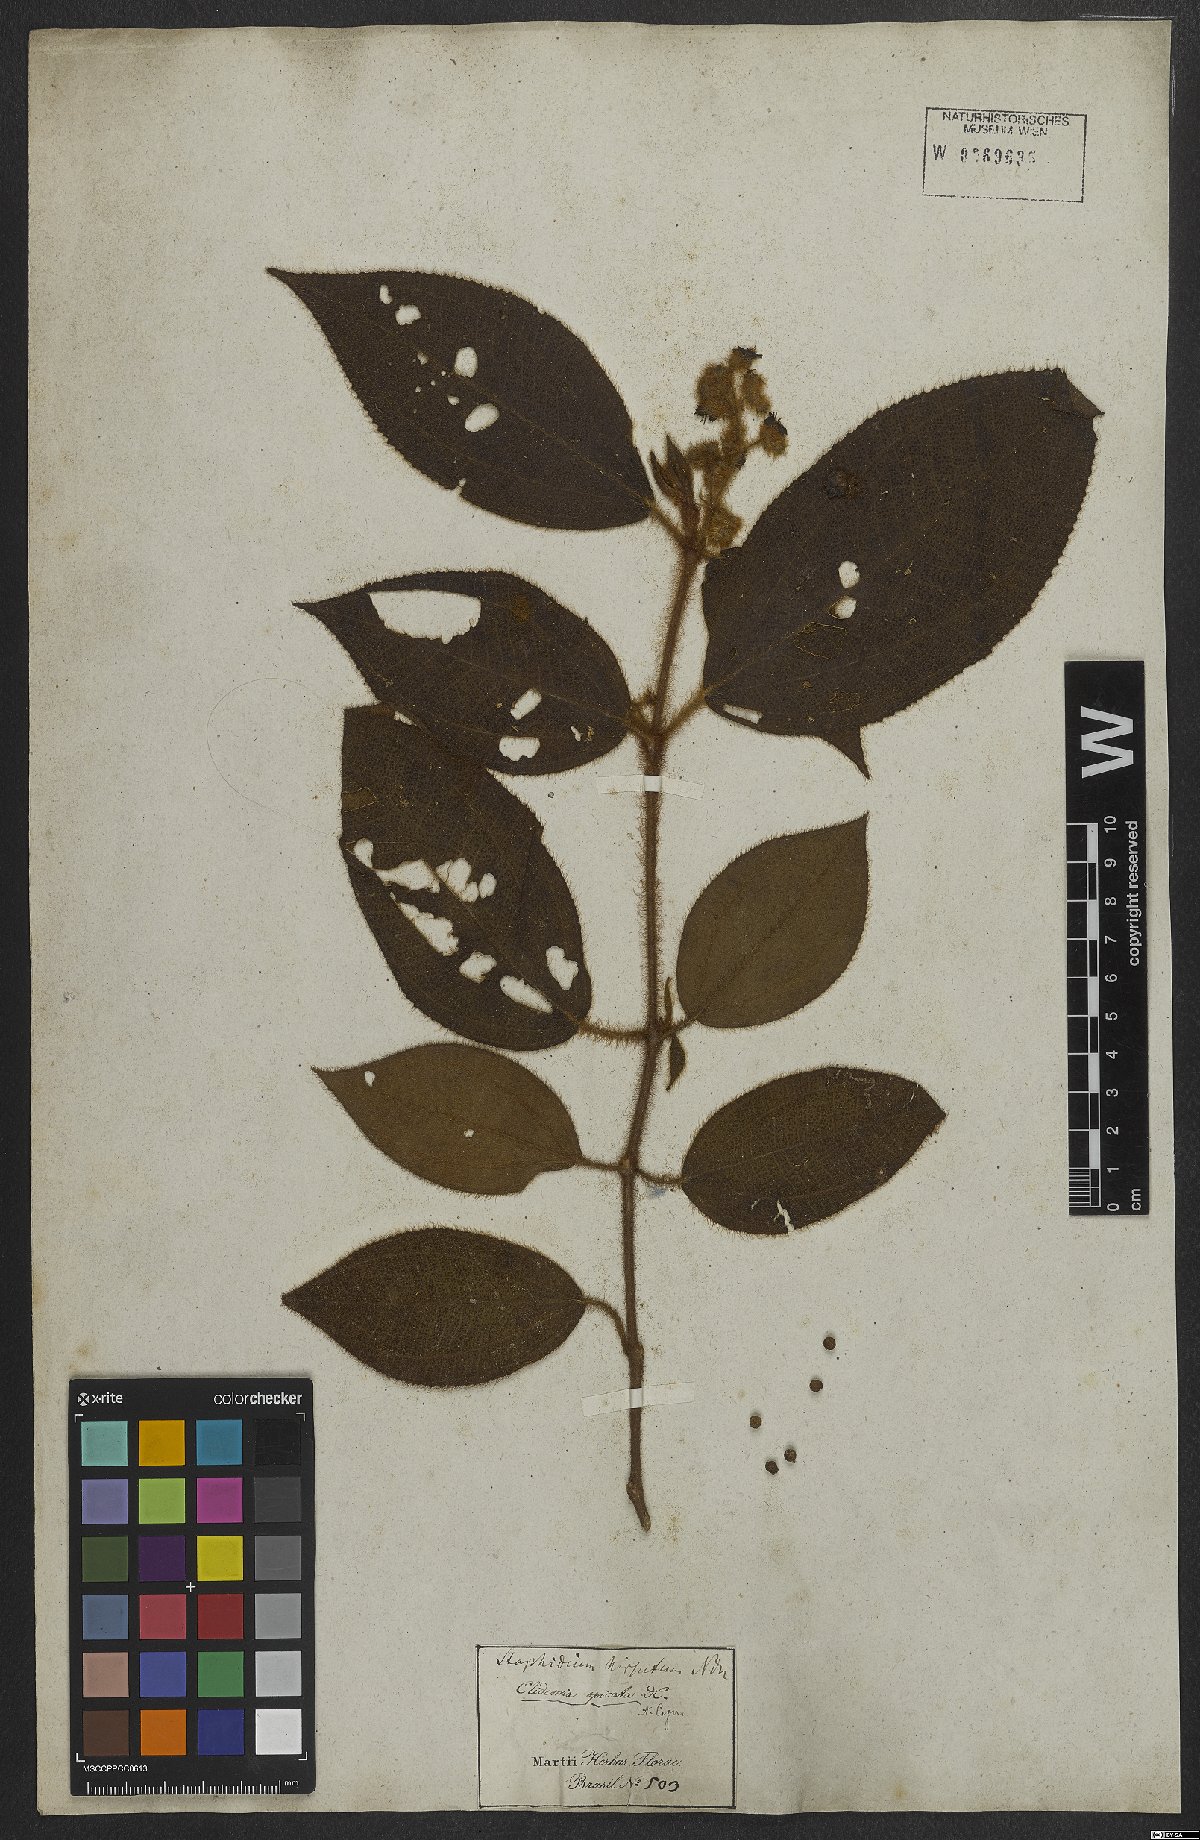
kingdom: Plantae
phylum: Tracheophyta
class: Magnoliopsida
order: Myrtales
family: Melastomataceae
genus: Miconia
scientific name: Miconia dependens
